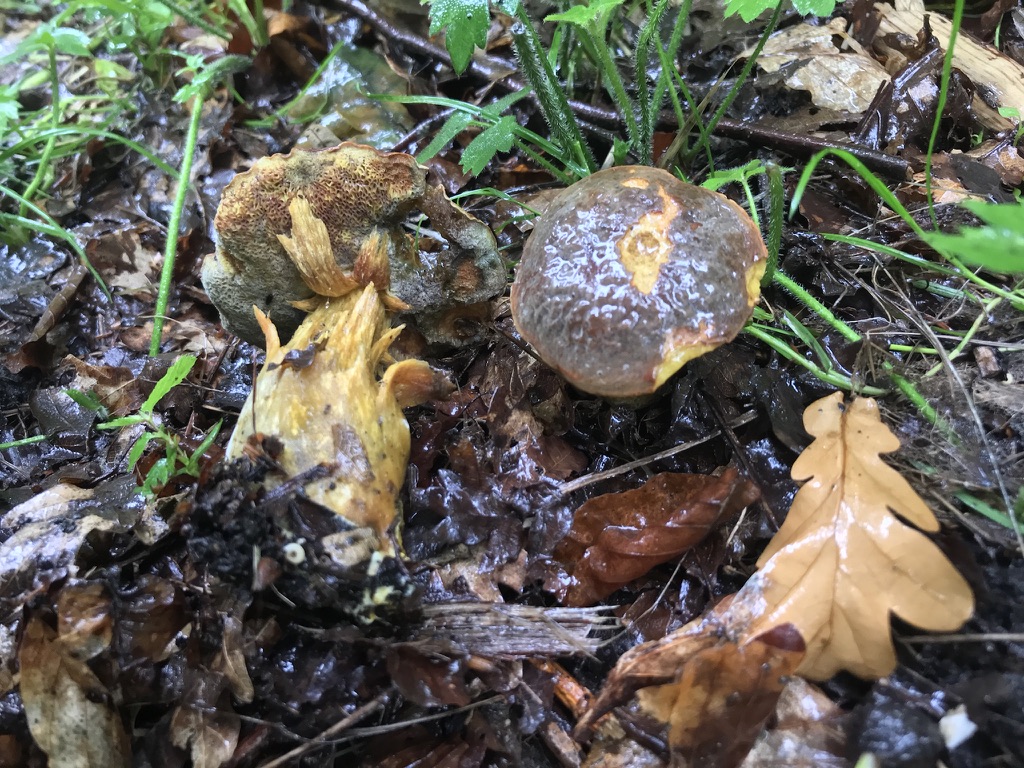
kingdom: Fungi
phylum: Basidiomycota
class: Agaricomycetes
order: Boletales
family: Boletaceae
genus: Imleria
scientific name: Imleria badia
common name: brunstokket rørhat
